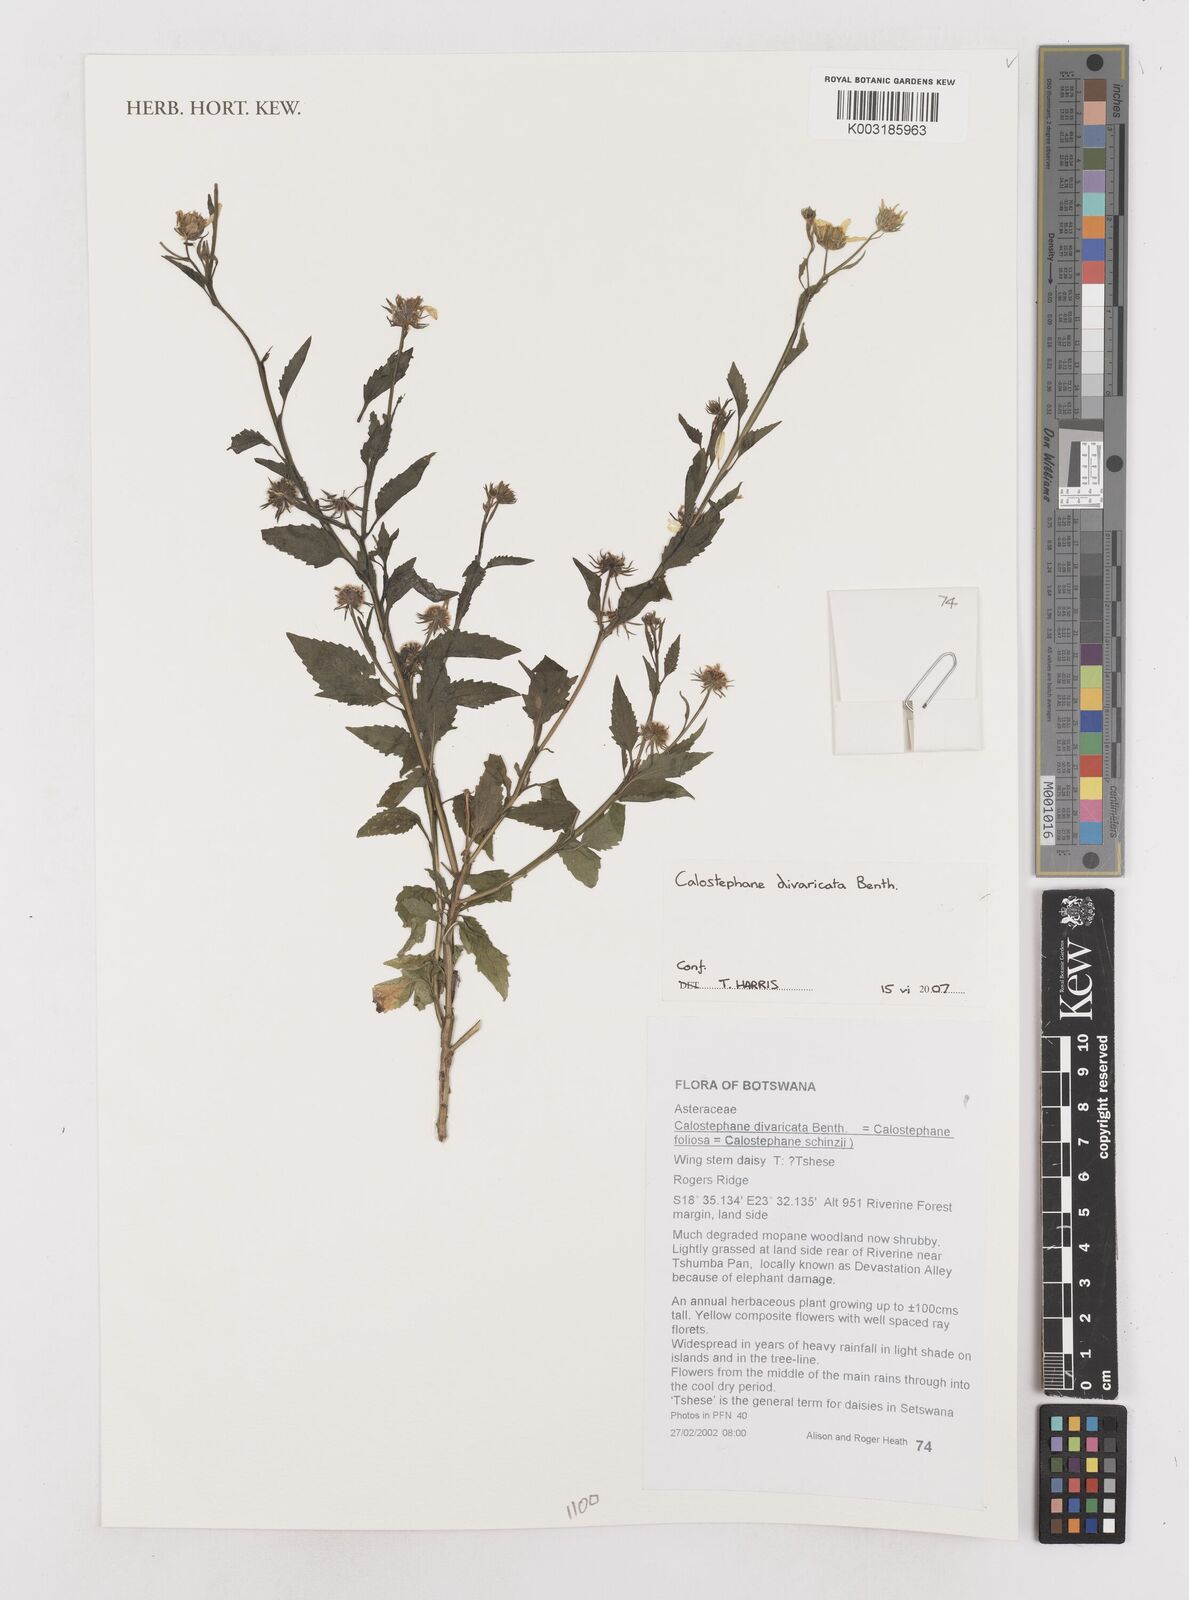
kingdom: Plantae
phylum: Tracheophyta
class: Magnoliopsida
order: Asterales
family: Asteraceae
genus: Calostephane
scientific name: Calostephane divaricata
